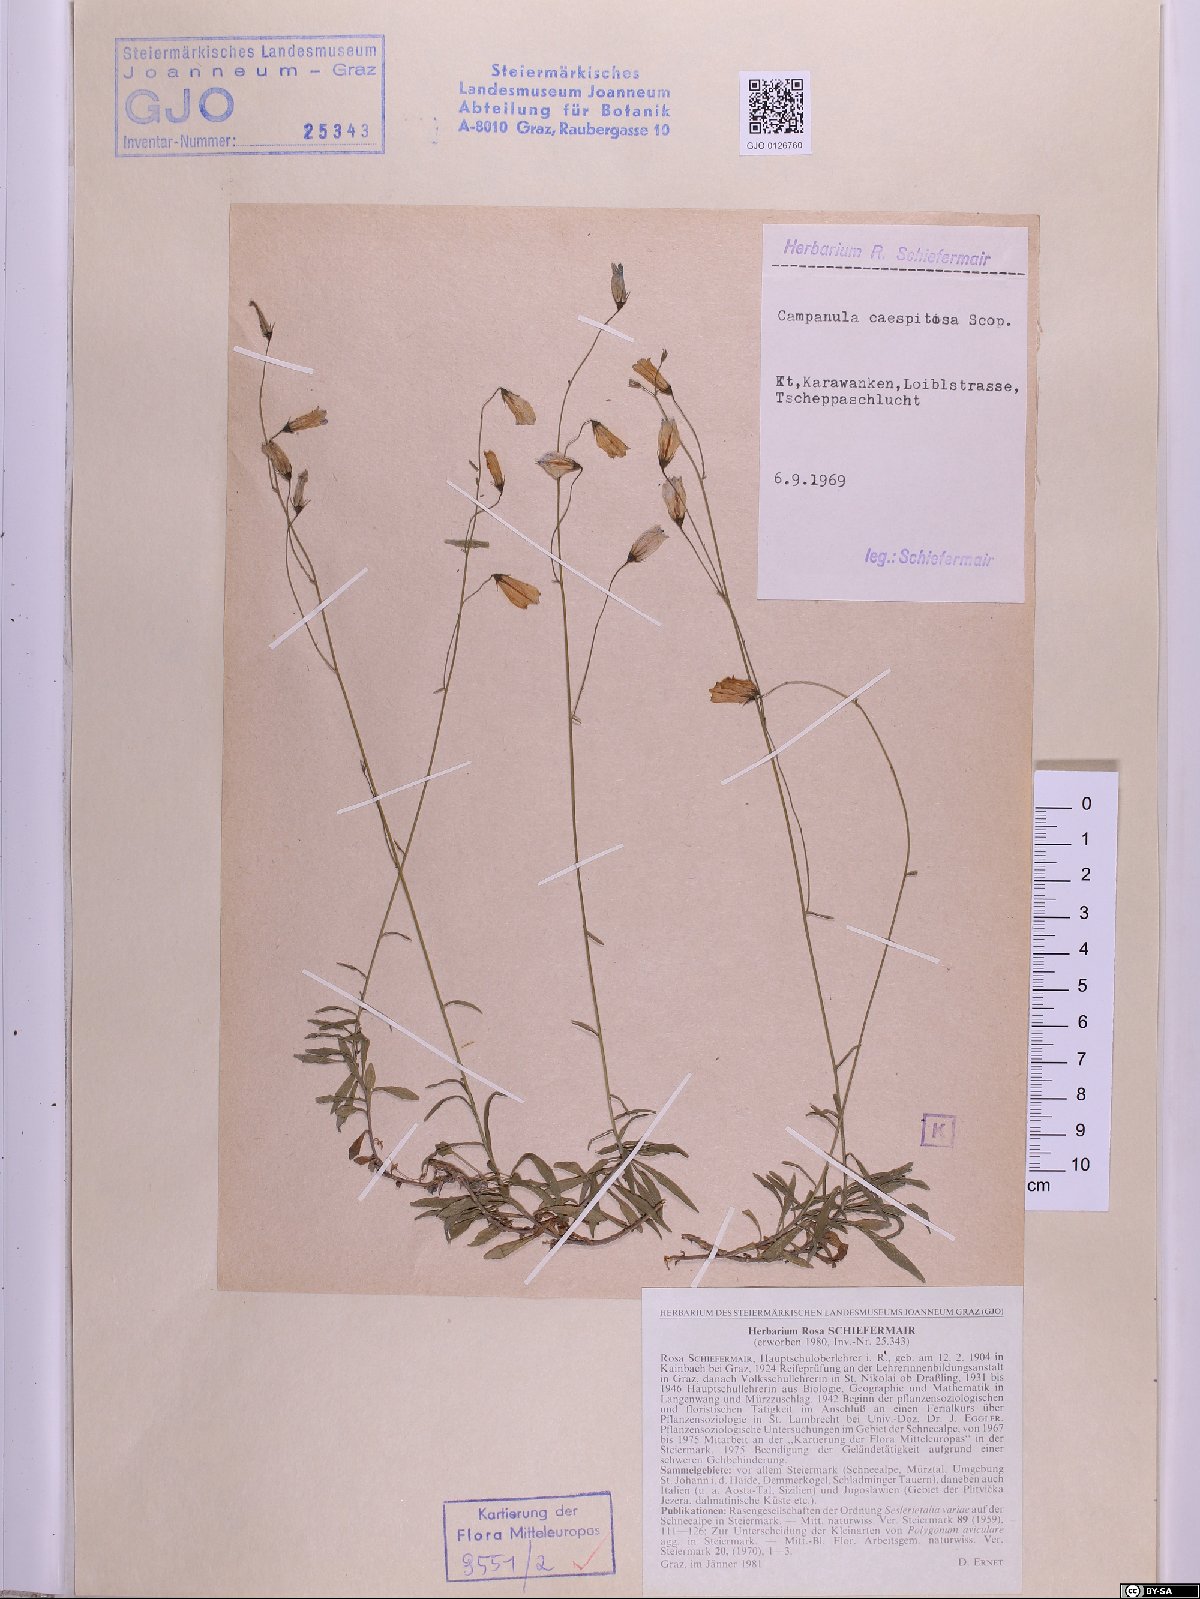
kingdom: Plantae
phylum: Tracheophyta
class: Magnoliopsida
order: Asterales
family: Campanulaceae
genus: Campanula
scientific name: Campanula caespitosa
